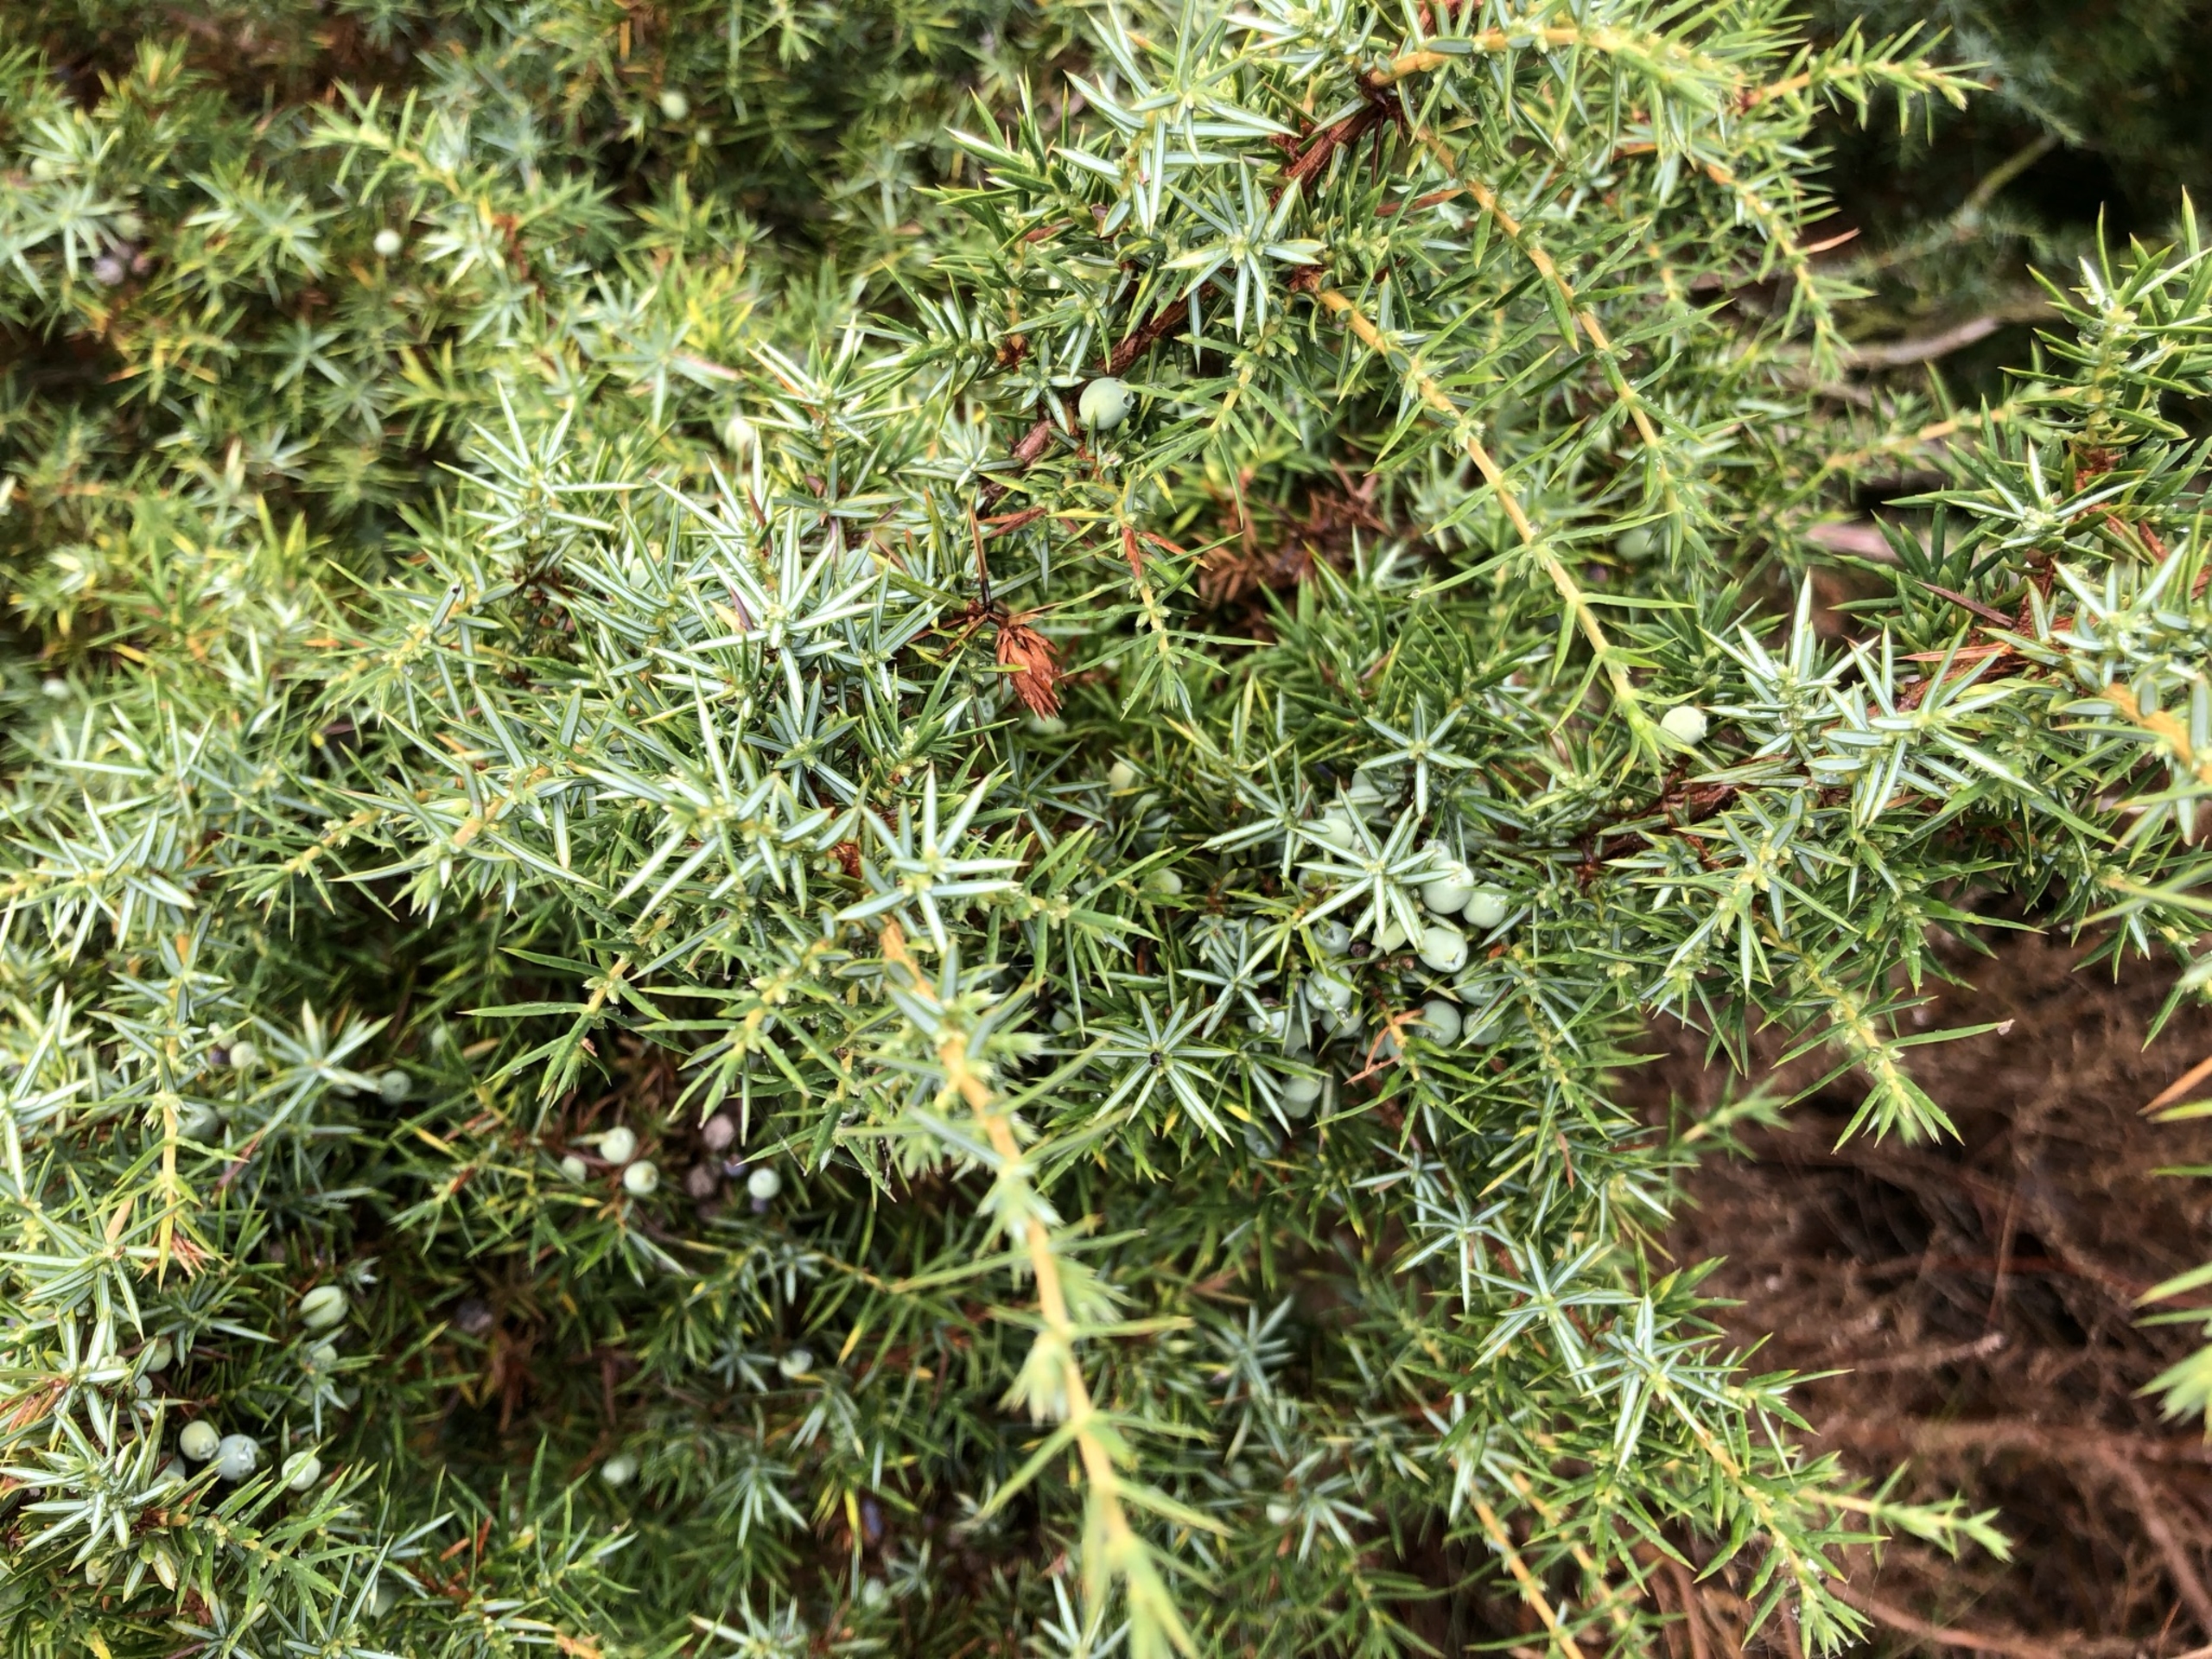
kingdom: Plantae
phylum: Tracheophyta
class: Pinopsida
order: Pinales
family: Cupressaceae
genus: Juniperus
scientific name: Juniperus communis
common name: Almindelig ene
